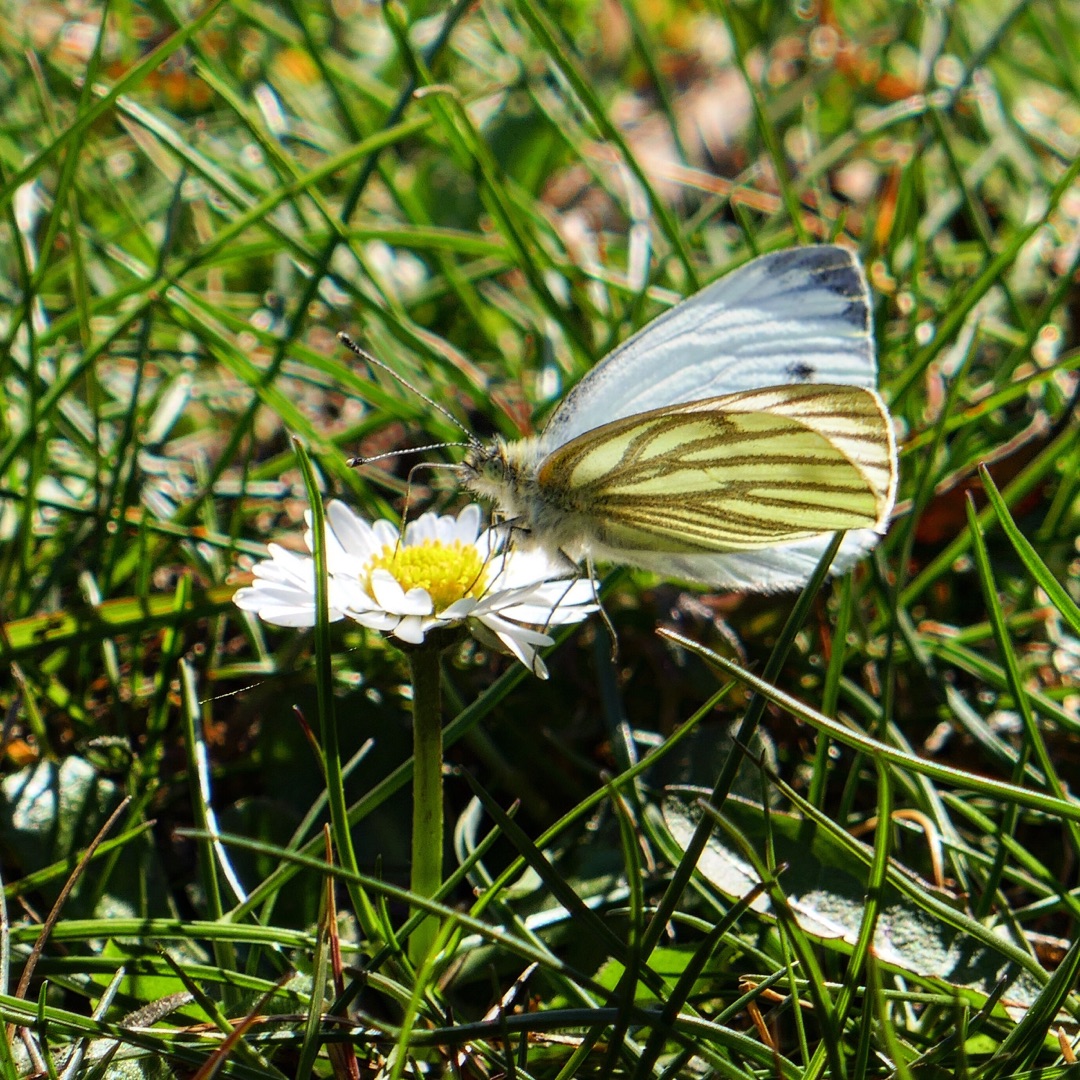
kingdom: Animalia
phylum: Arthropoda
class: Insecta
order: Lepidoptera
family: Pieridae
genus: Pieris
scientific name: Pieris napi
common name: Grønåret kålsommerfugl
